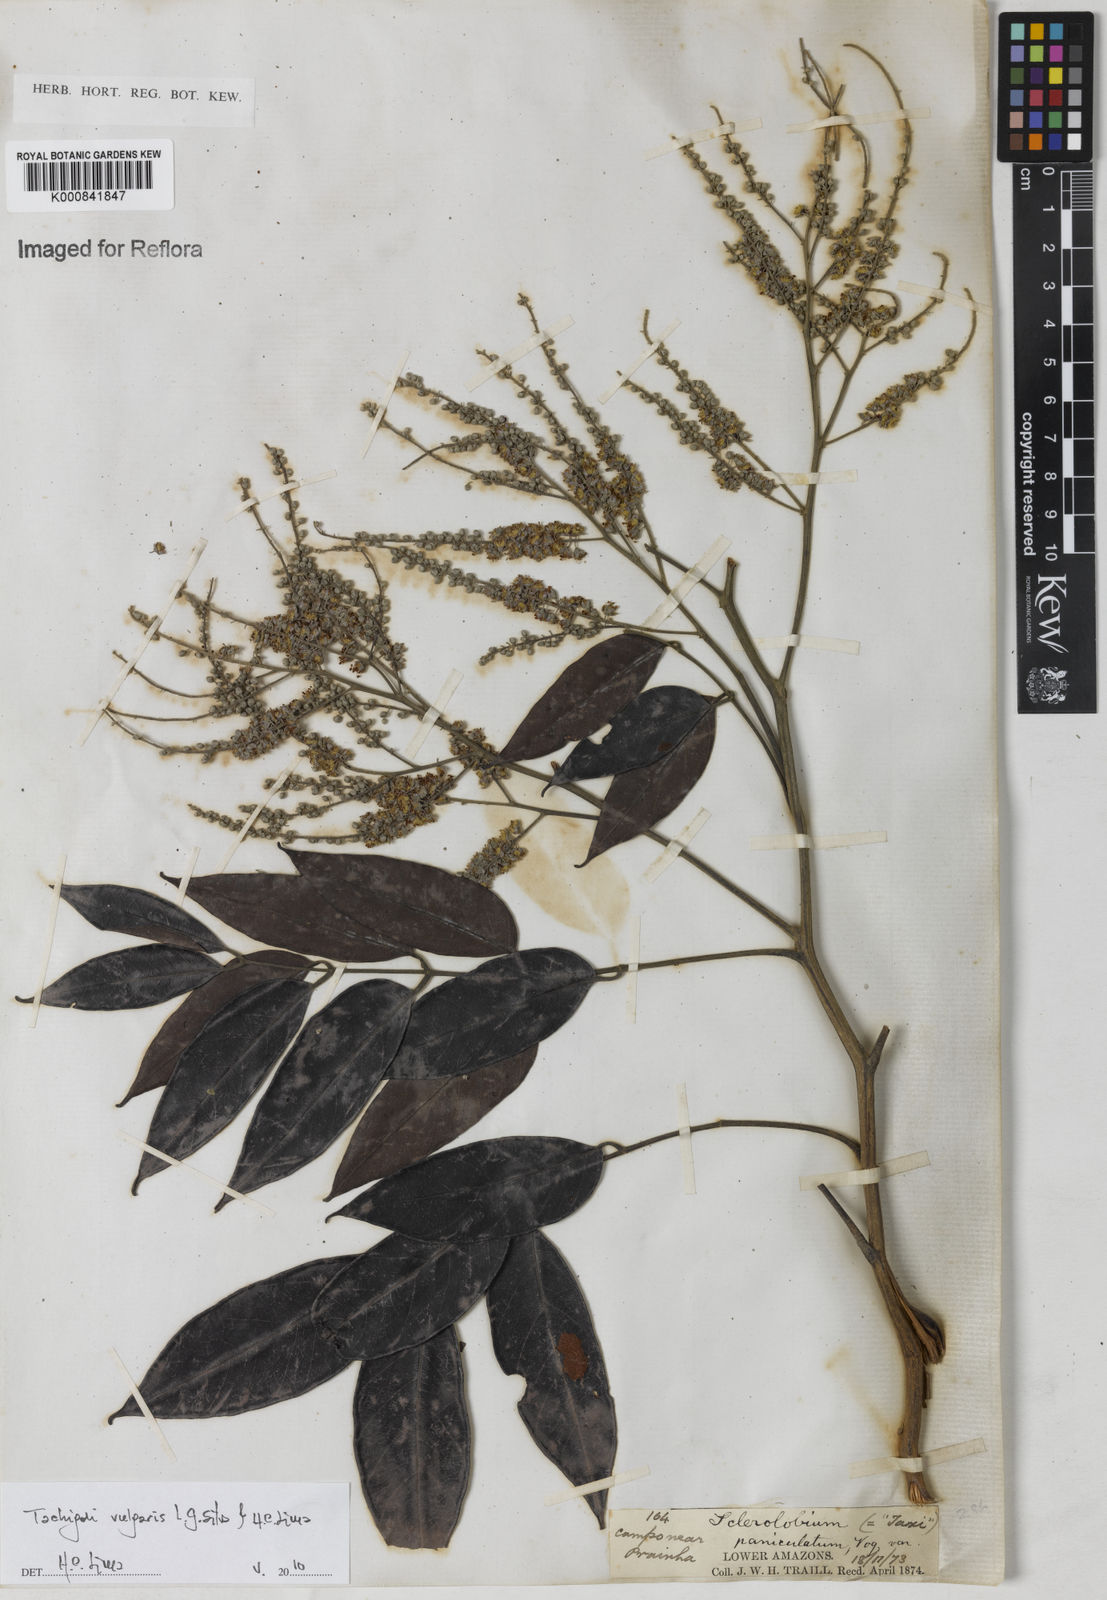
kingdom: Plantae
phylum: Tracheophyta
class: Magnoliopsida
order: Fabales
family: Fabaceae
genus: Tachigali
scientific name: Tachigali vulgaris
